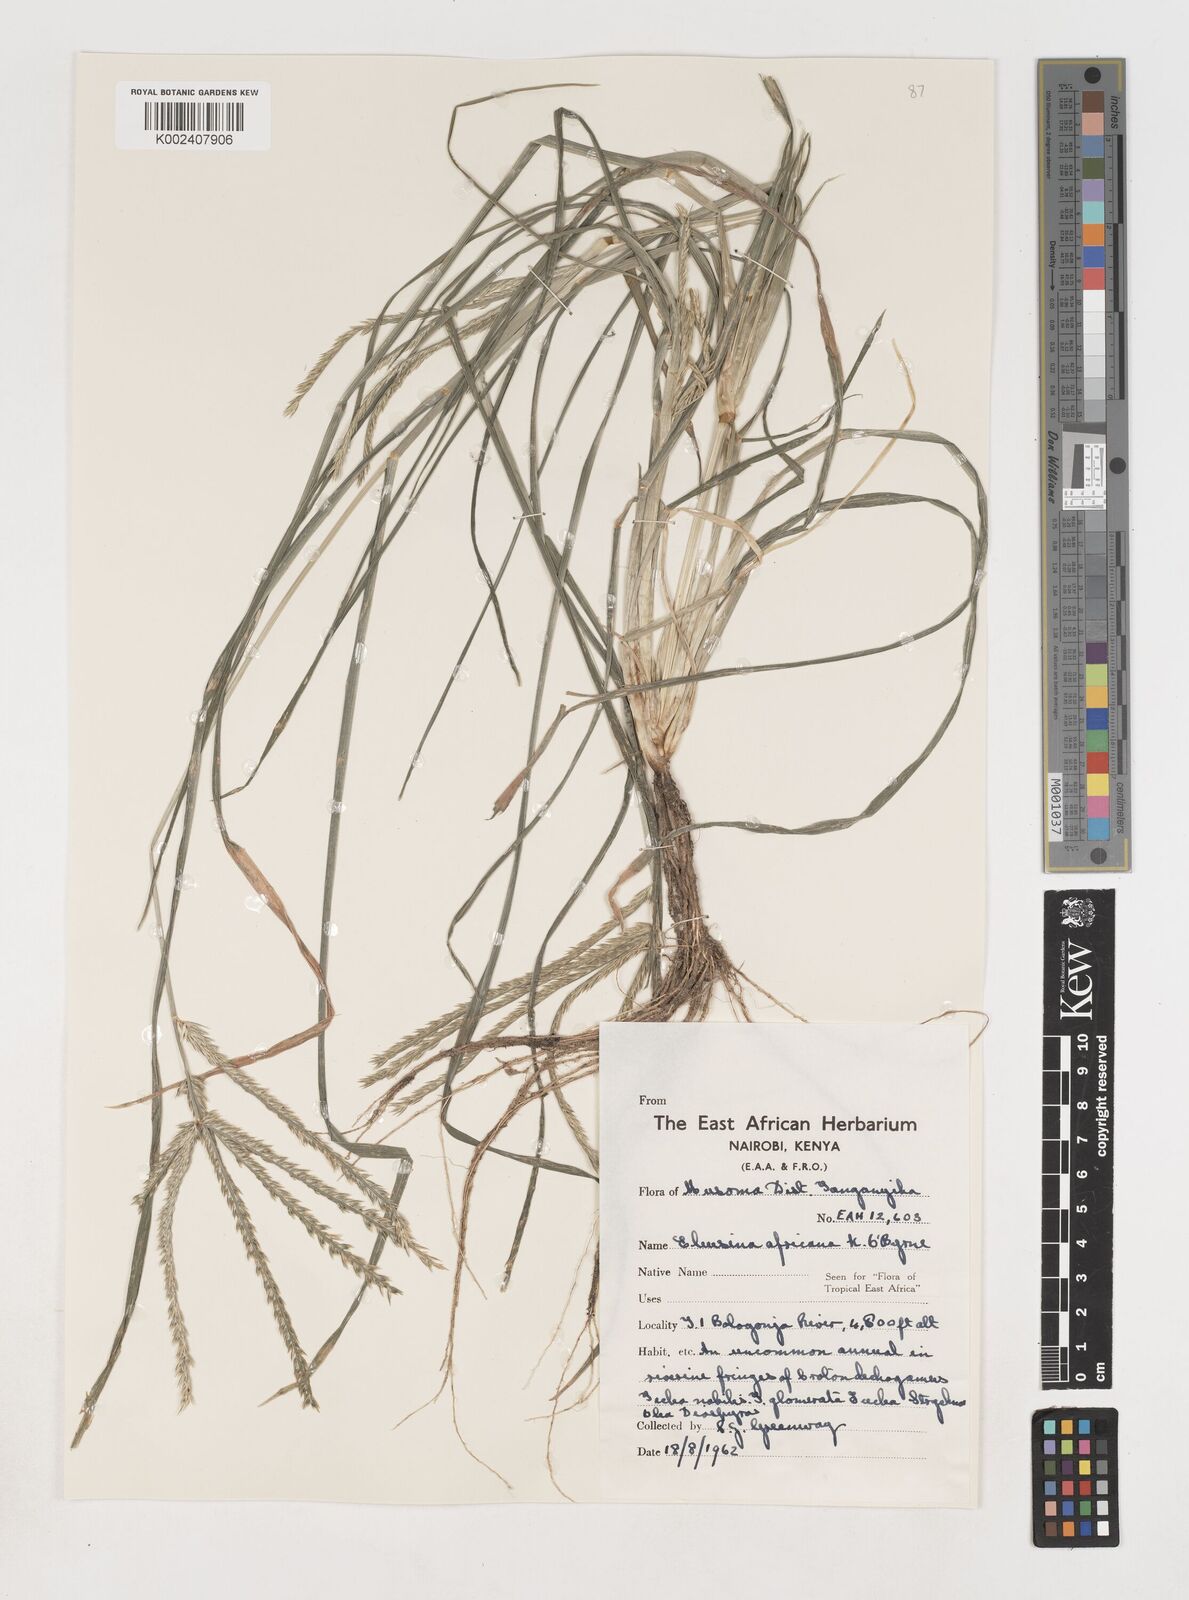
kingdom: Plantae
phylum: Tracheophyta
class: Liliopsida
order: Poales
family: Poaceae
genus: Eleusine
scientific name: Eleusine africana
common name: Wild african finger millet
